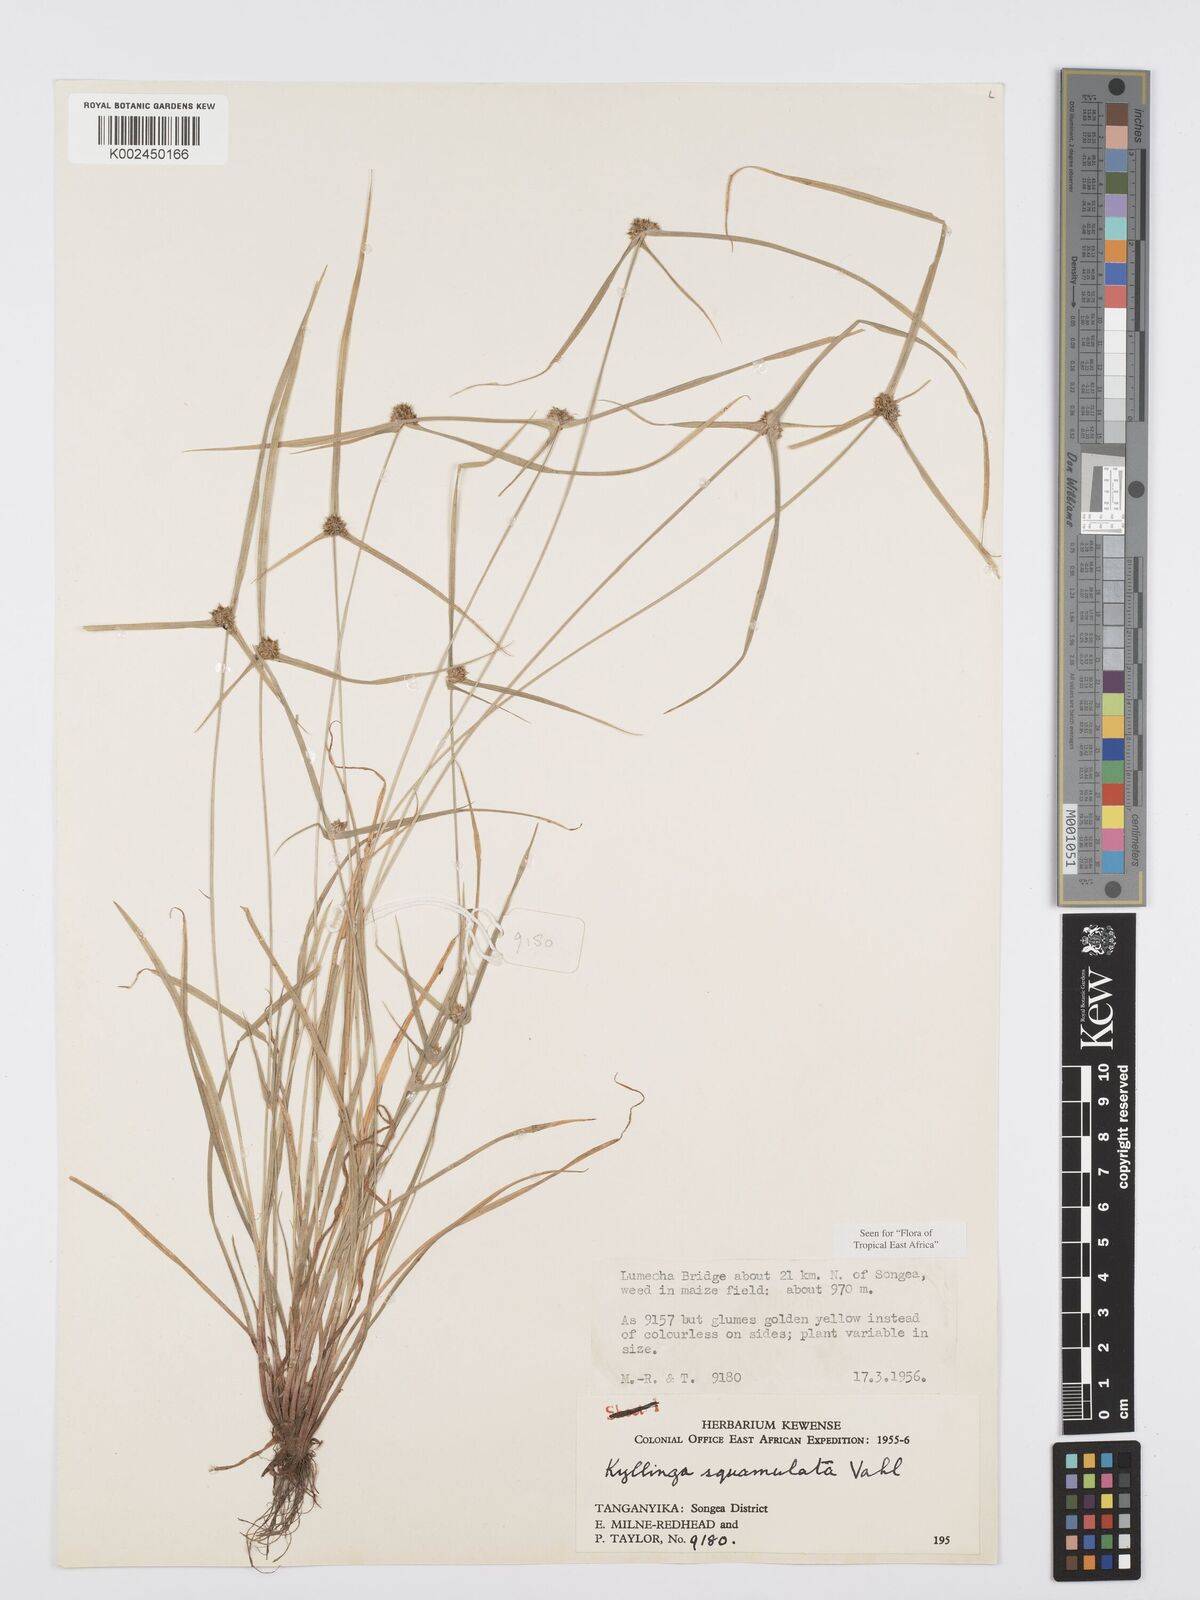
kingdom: Plantae
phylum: Tracheophyta
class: Liliopsida
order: Poales
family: Cyperaceae
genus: Cyperus
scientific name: Cyperus distans
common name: Slender cyperus
